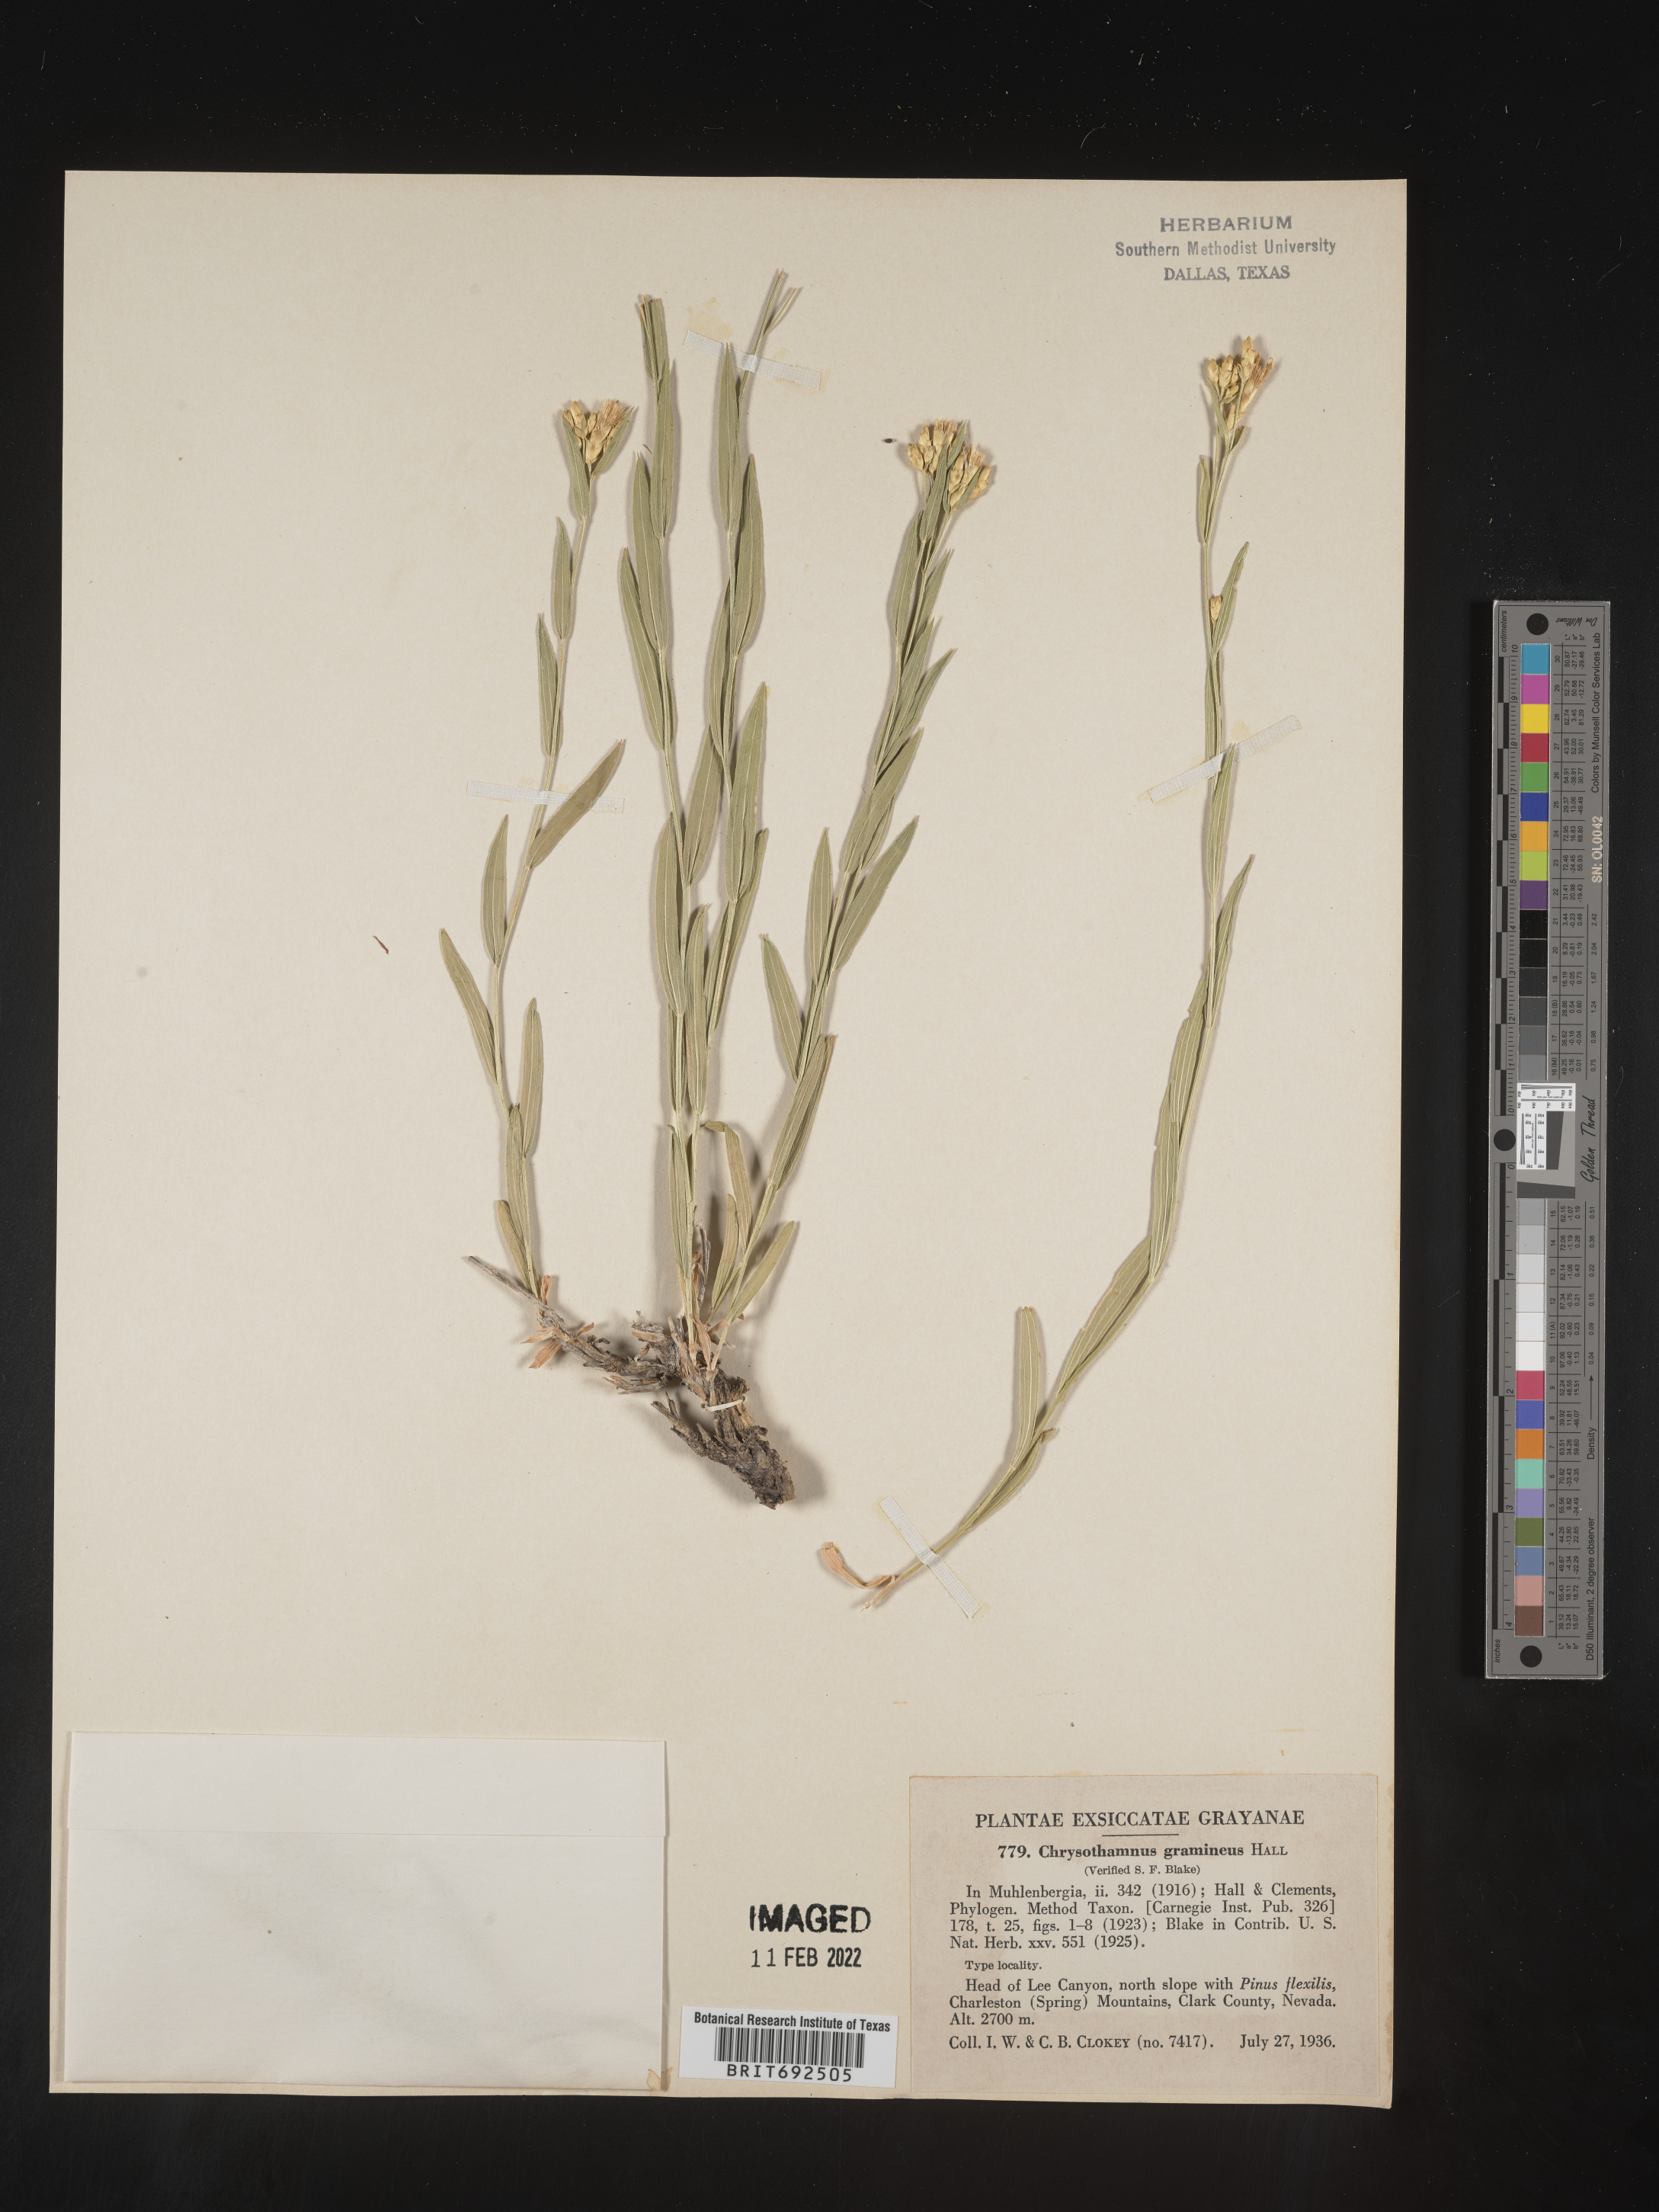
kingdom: Plantae
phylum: Tracheophyta
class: Magnoliopsida
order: Asterales
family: Asteraceae
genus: Cuniculotinus
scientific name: Cuniculotinus
